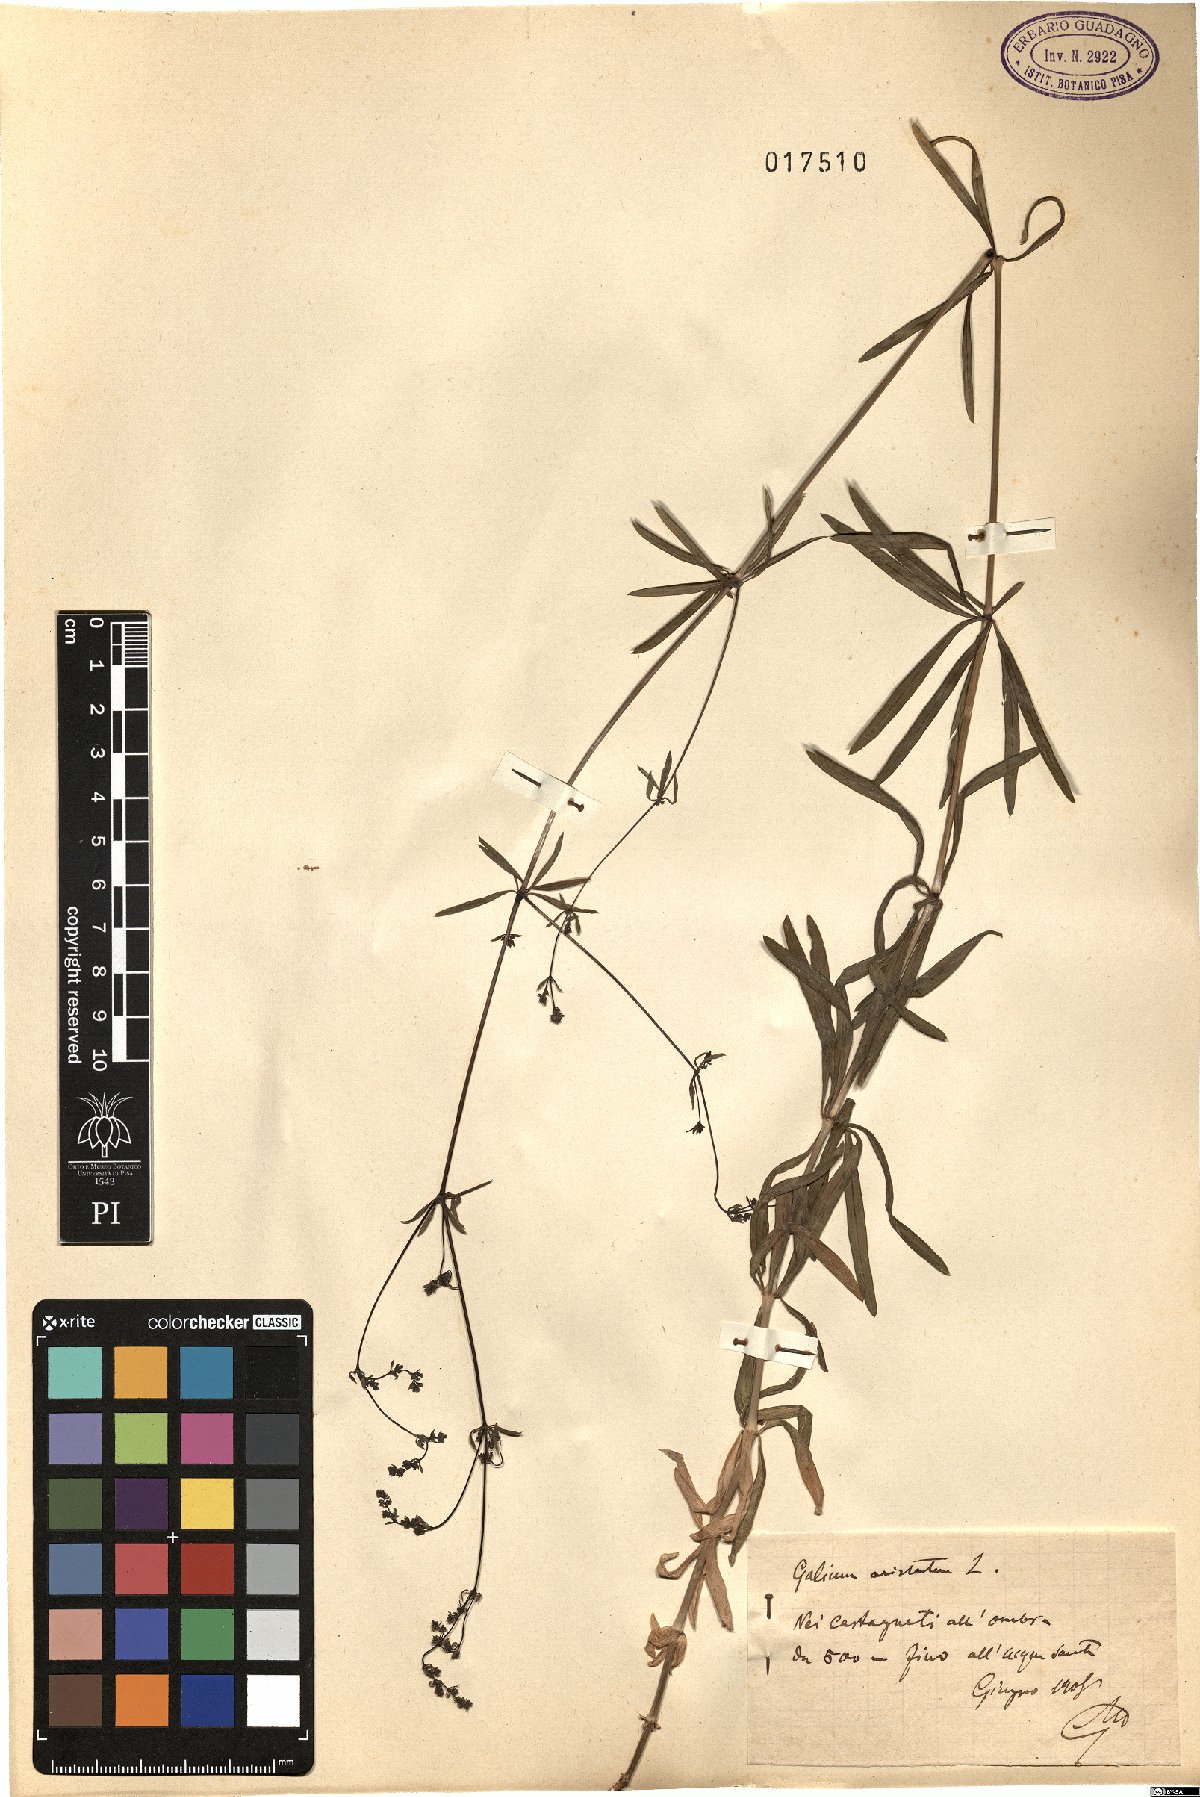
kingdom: Plantae
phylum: Tracheophyta
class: Magnoliopsida
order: Gentianales
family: Rubiaceae
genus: Galium
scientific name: Galium aristatum
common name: Awned bedstraw
